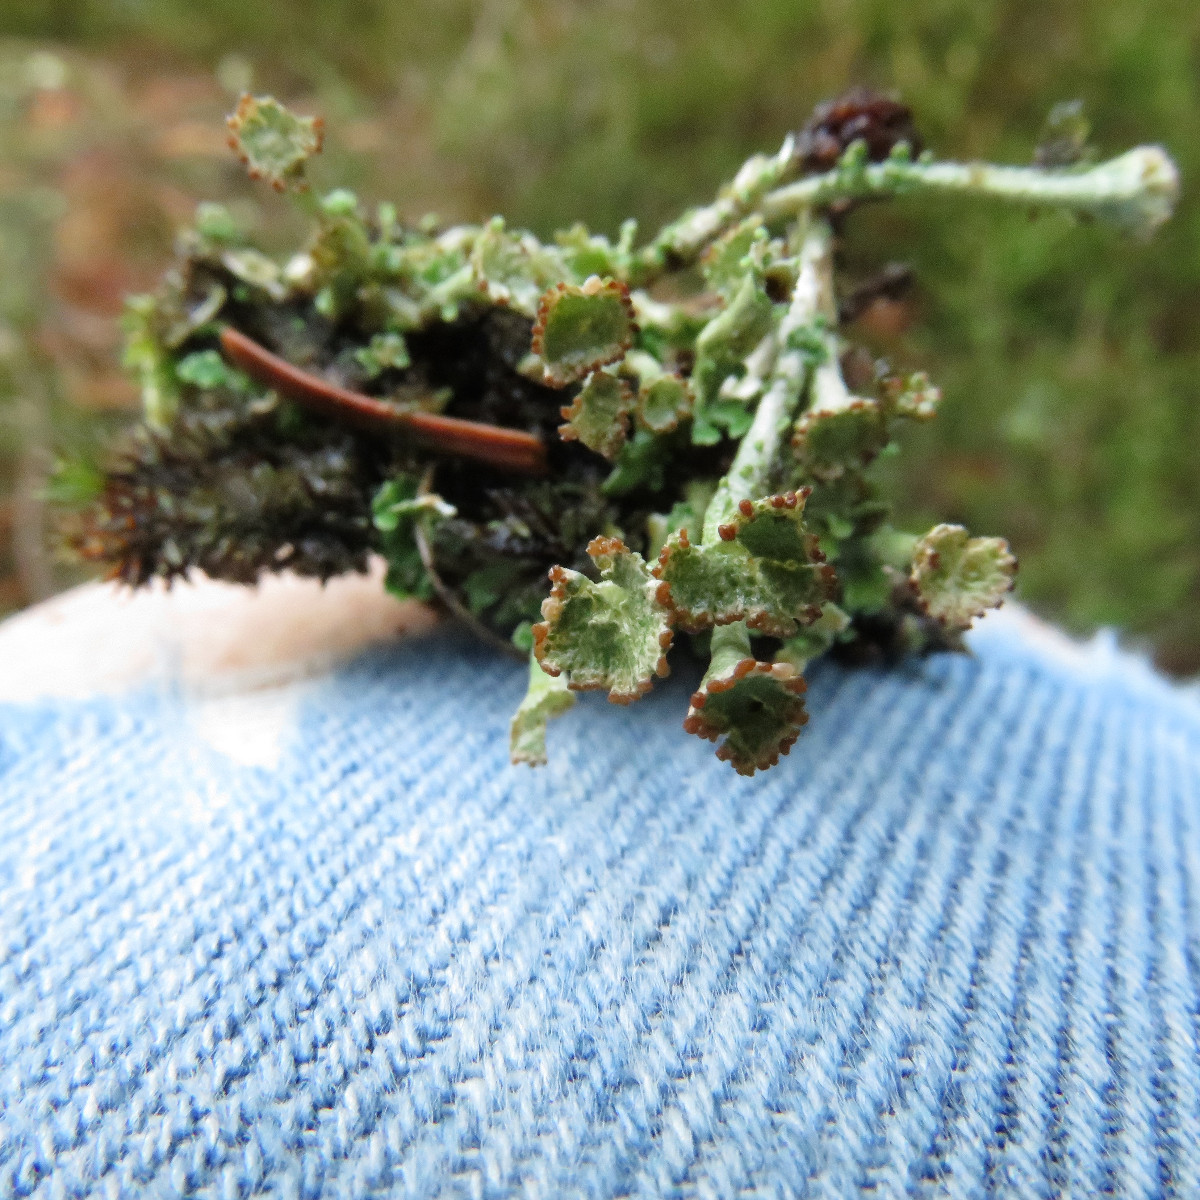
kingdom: Fungi
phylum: Ascomycota
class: Lecanoromycetes
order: Lecanorales
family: Cladoniaceae
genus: Cladonia
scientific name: Cladonia phyllophora
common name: sortfodet bægerlav
